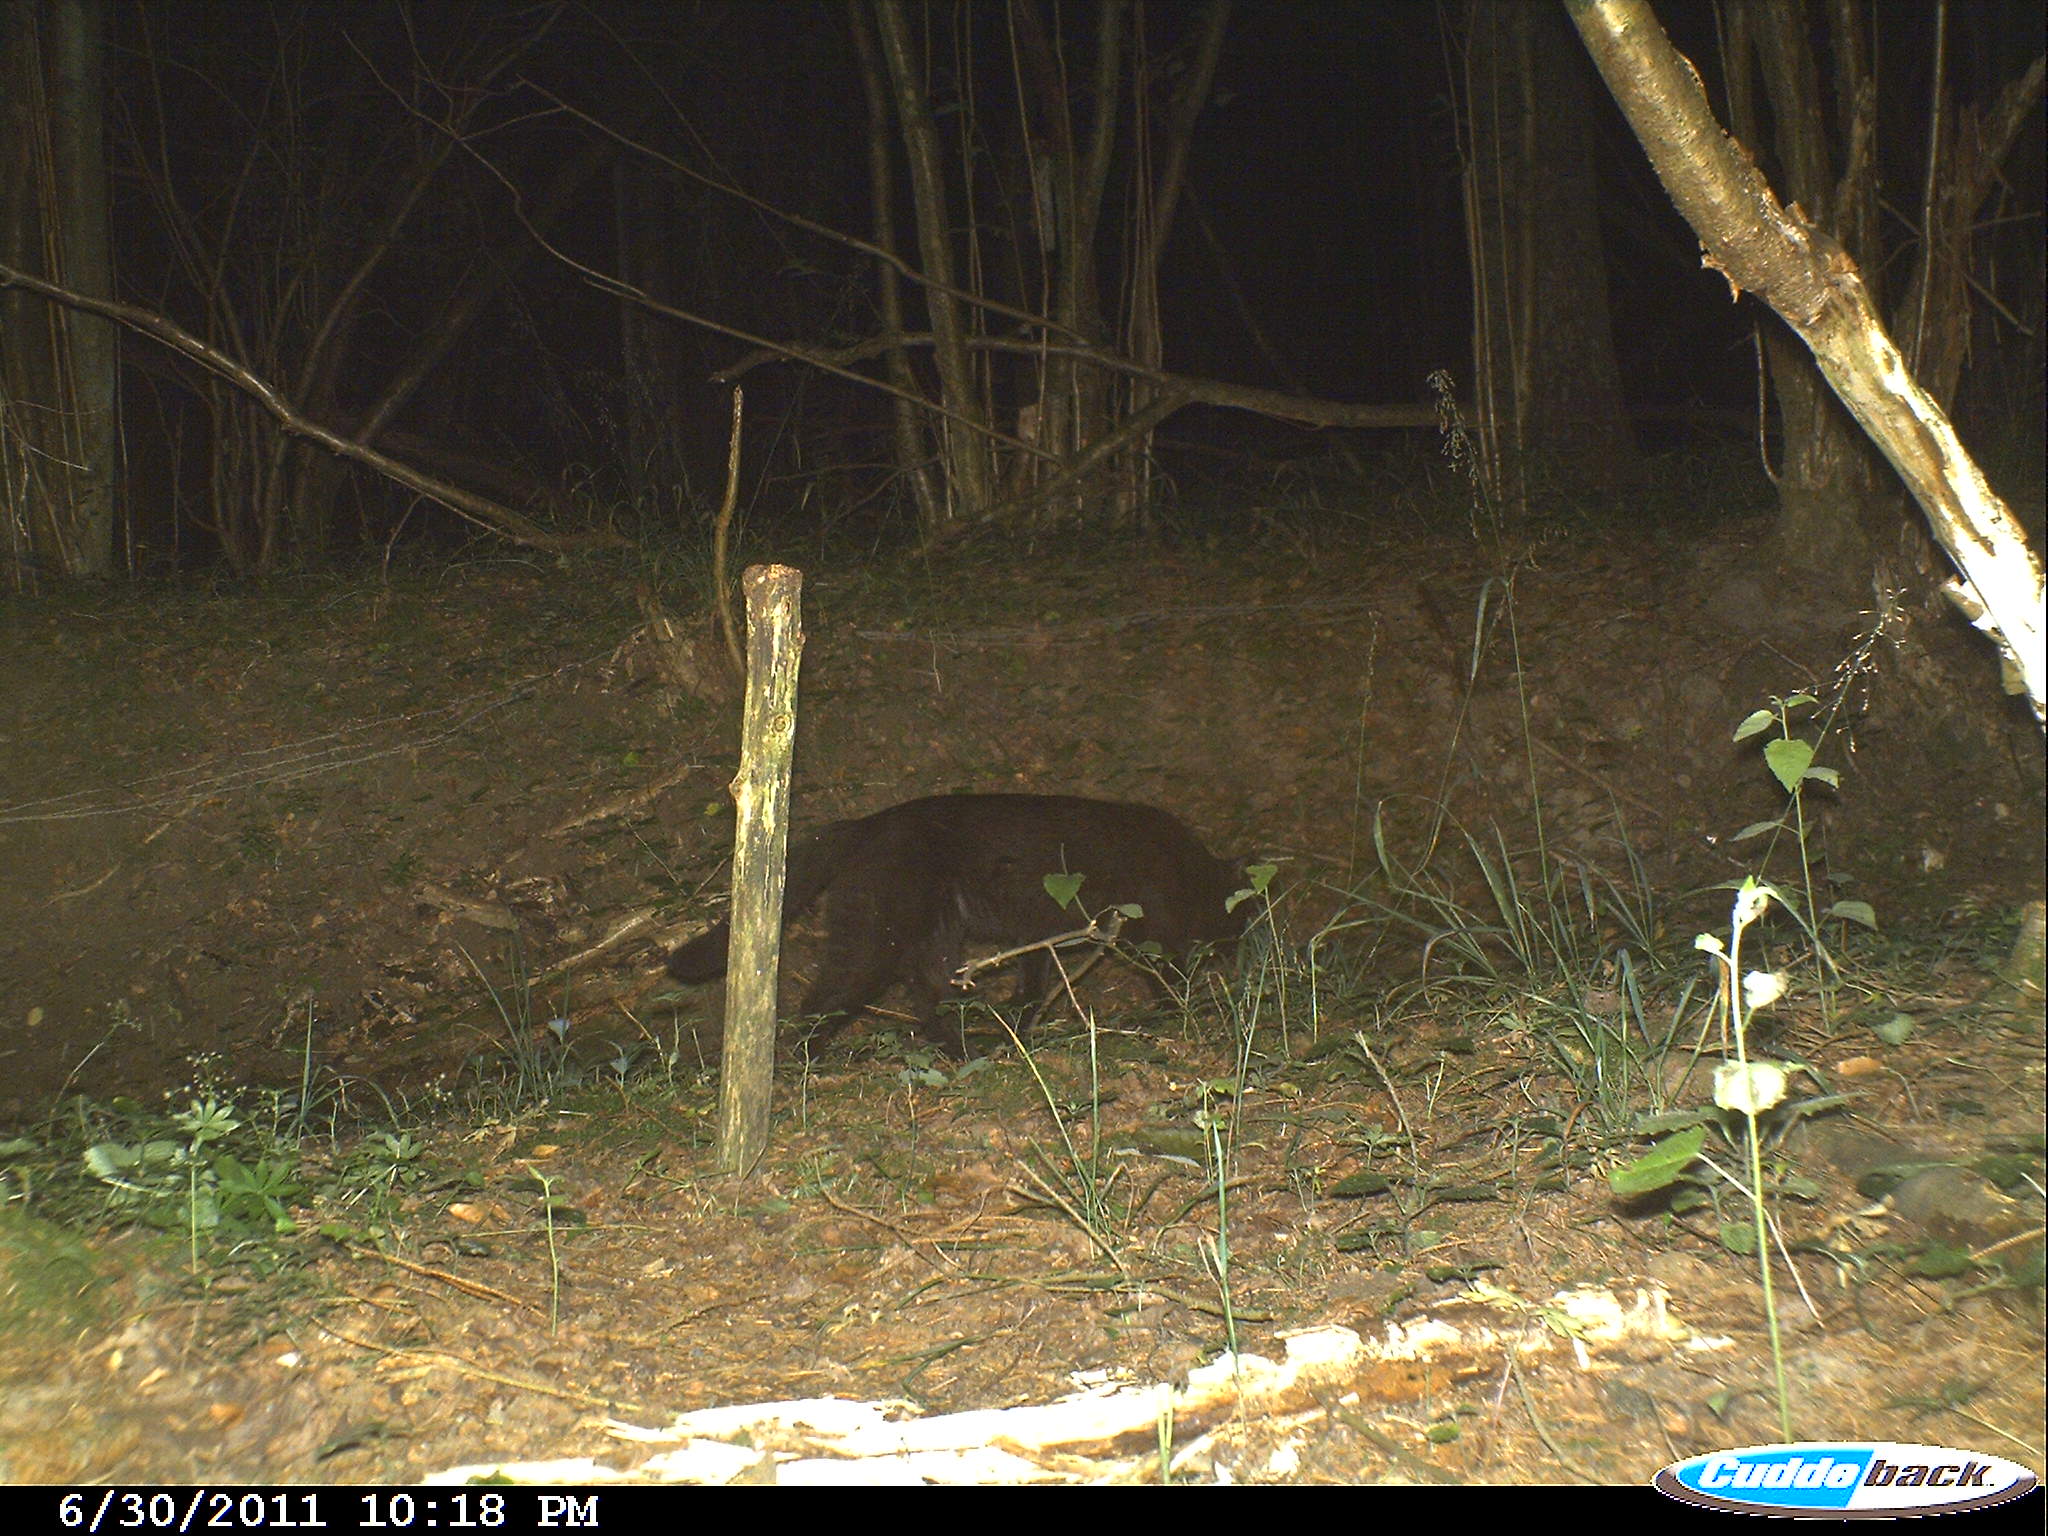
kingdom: Animalia
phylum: Chordata
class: Mammalia
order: Carnivora
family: Felidae
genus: Felis
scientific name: Felis catus
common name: Domestic cat
